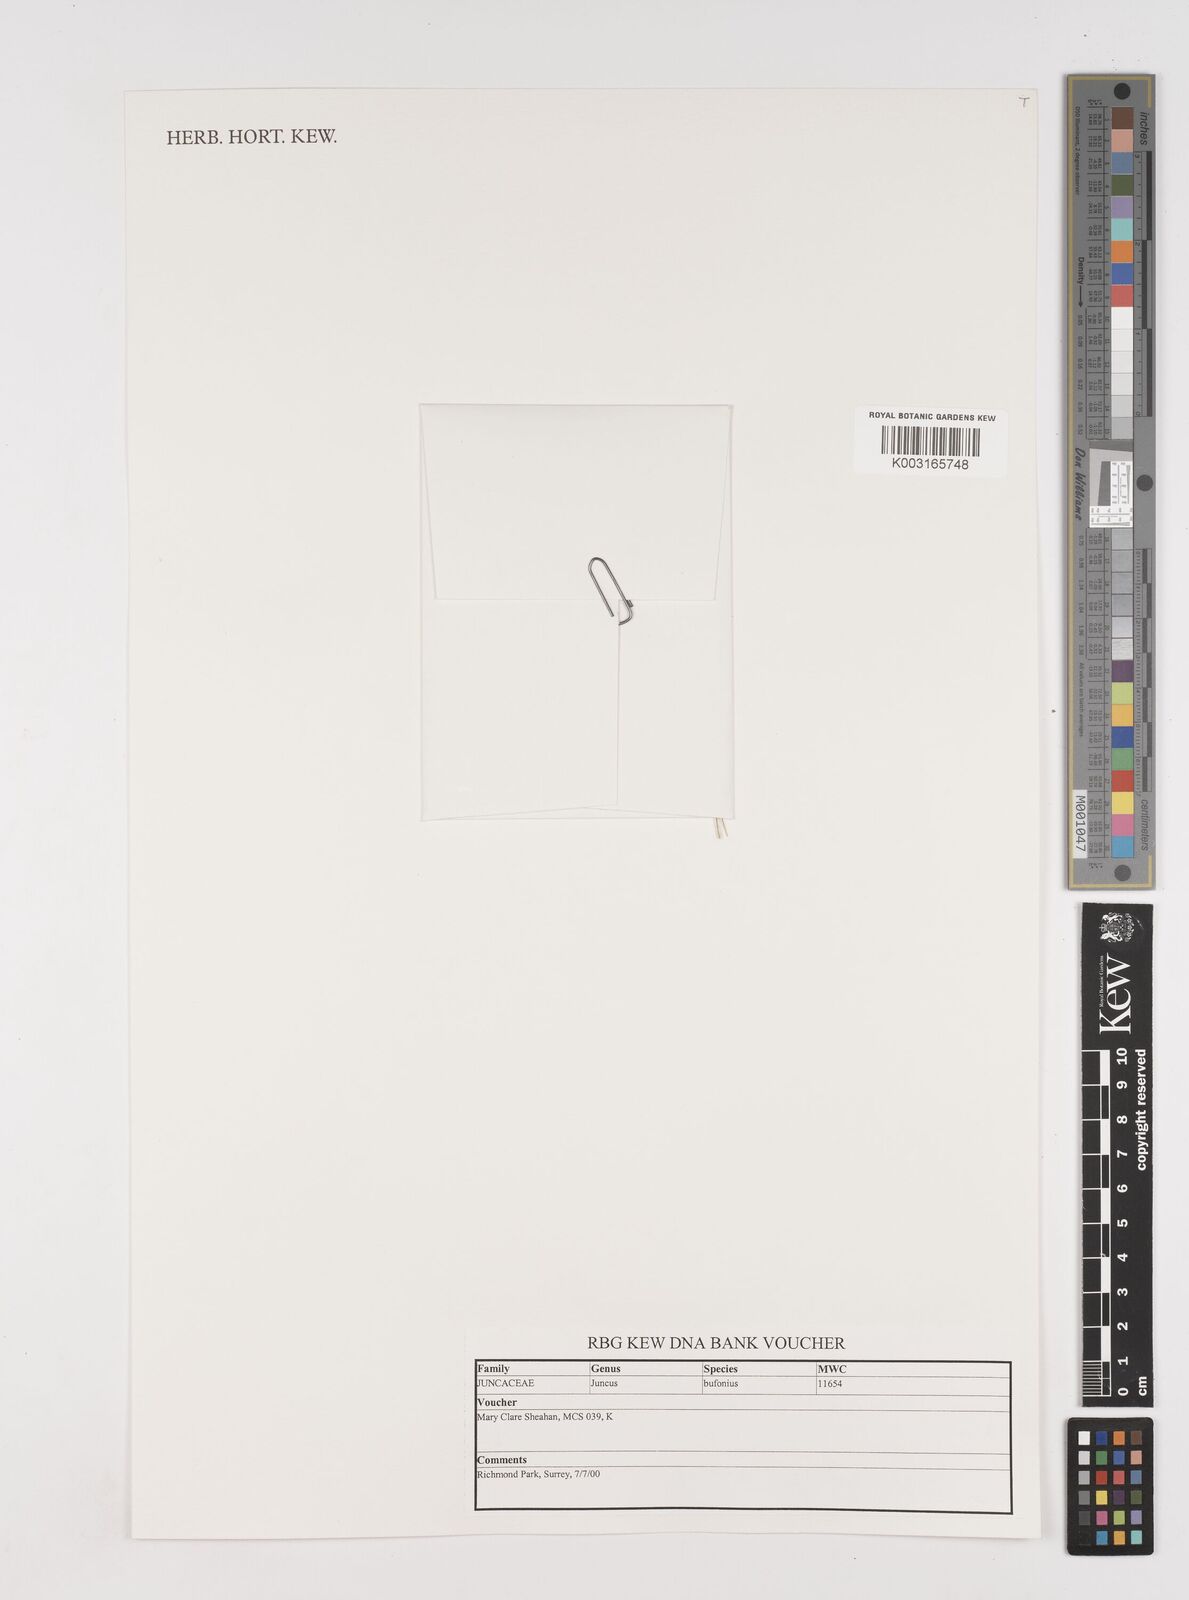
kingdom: Plantae
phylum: Tracheophyta
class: Liliopsida
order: Poales
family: Juncaceae
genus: Juncus
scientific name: Juncus bufonius
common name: Toad rush
